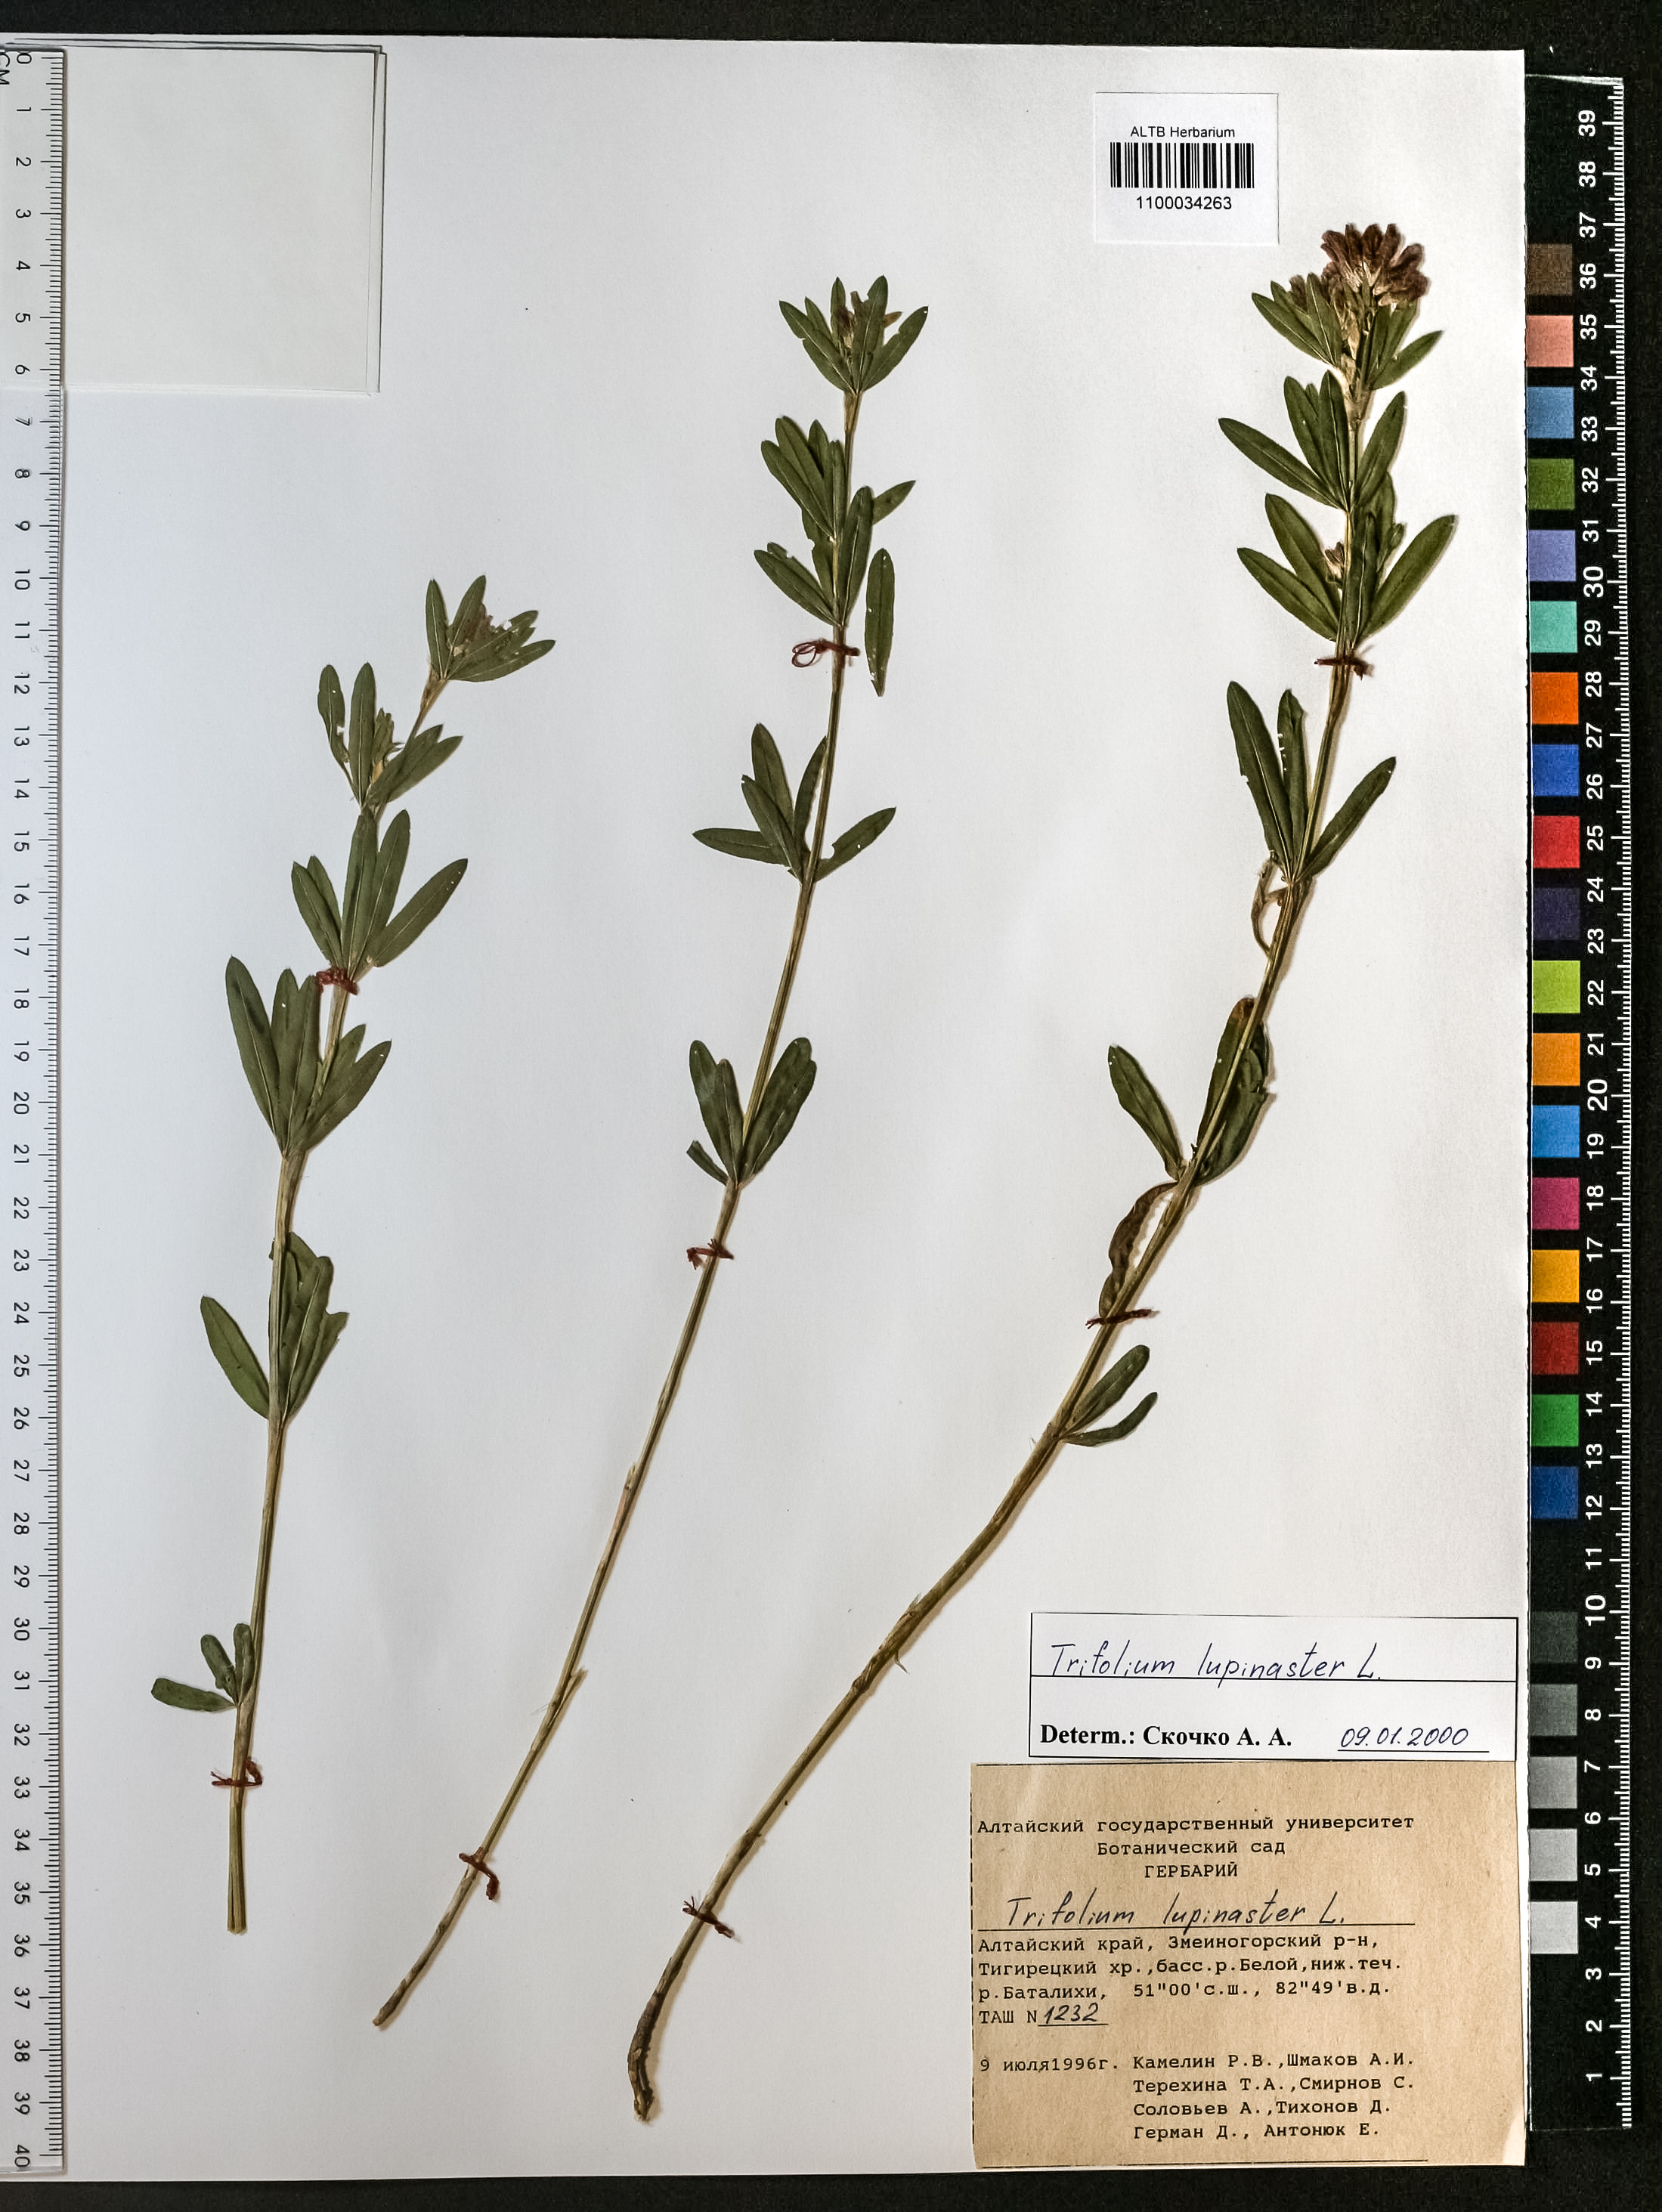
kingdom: Plantae
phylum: Tracheophyta
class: Magnoliopsida
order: Fabales
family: Fabaceae
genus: Trifolium
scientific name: Trifolium lupinaster
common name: Lupine clover
